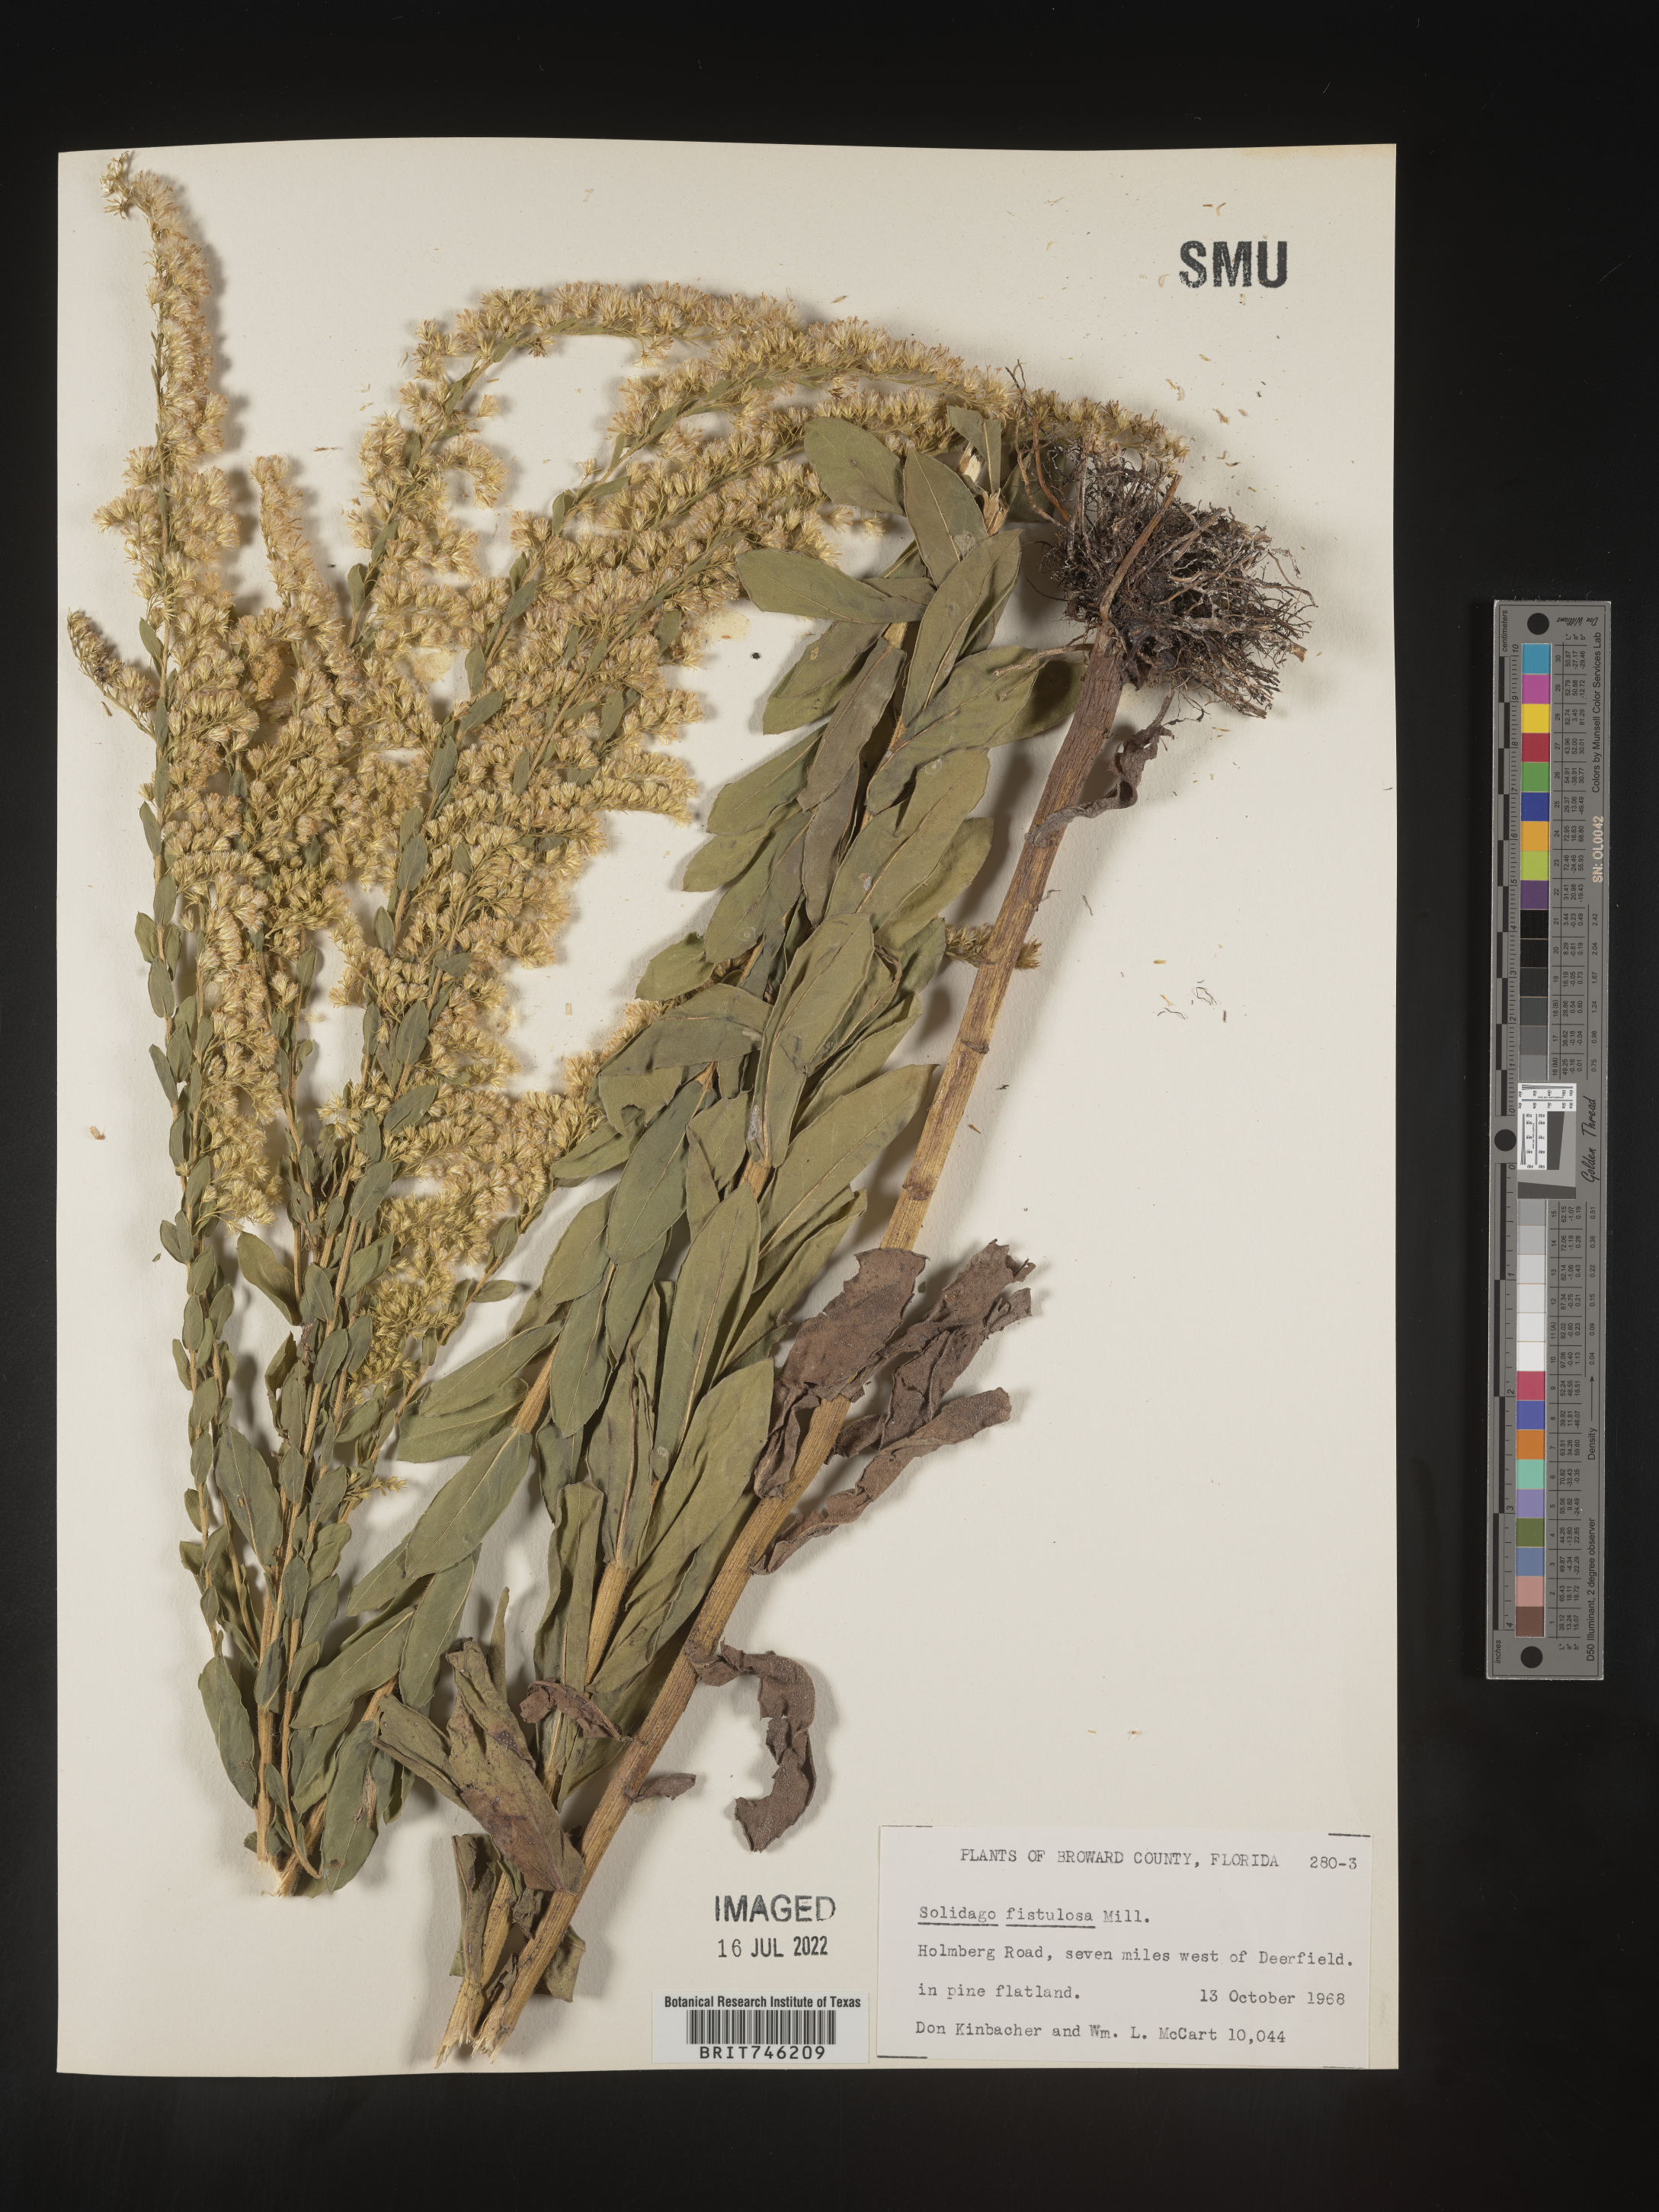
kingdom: Plantae
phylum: Tracheophyta
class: Magnoliopsida
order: Asterales
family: Asteraceae
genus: Solidago
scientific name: Solidago fistulosa
